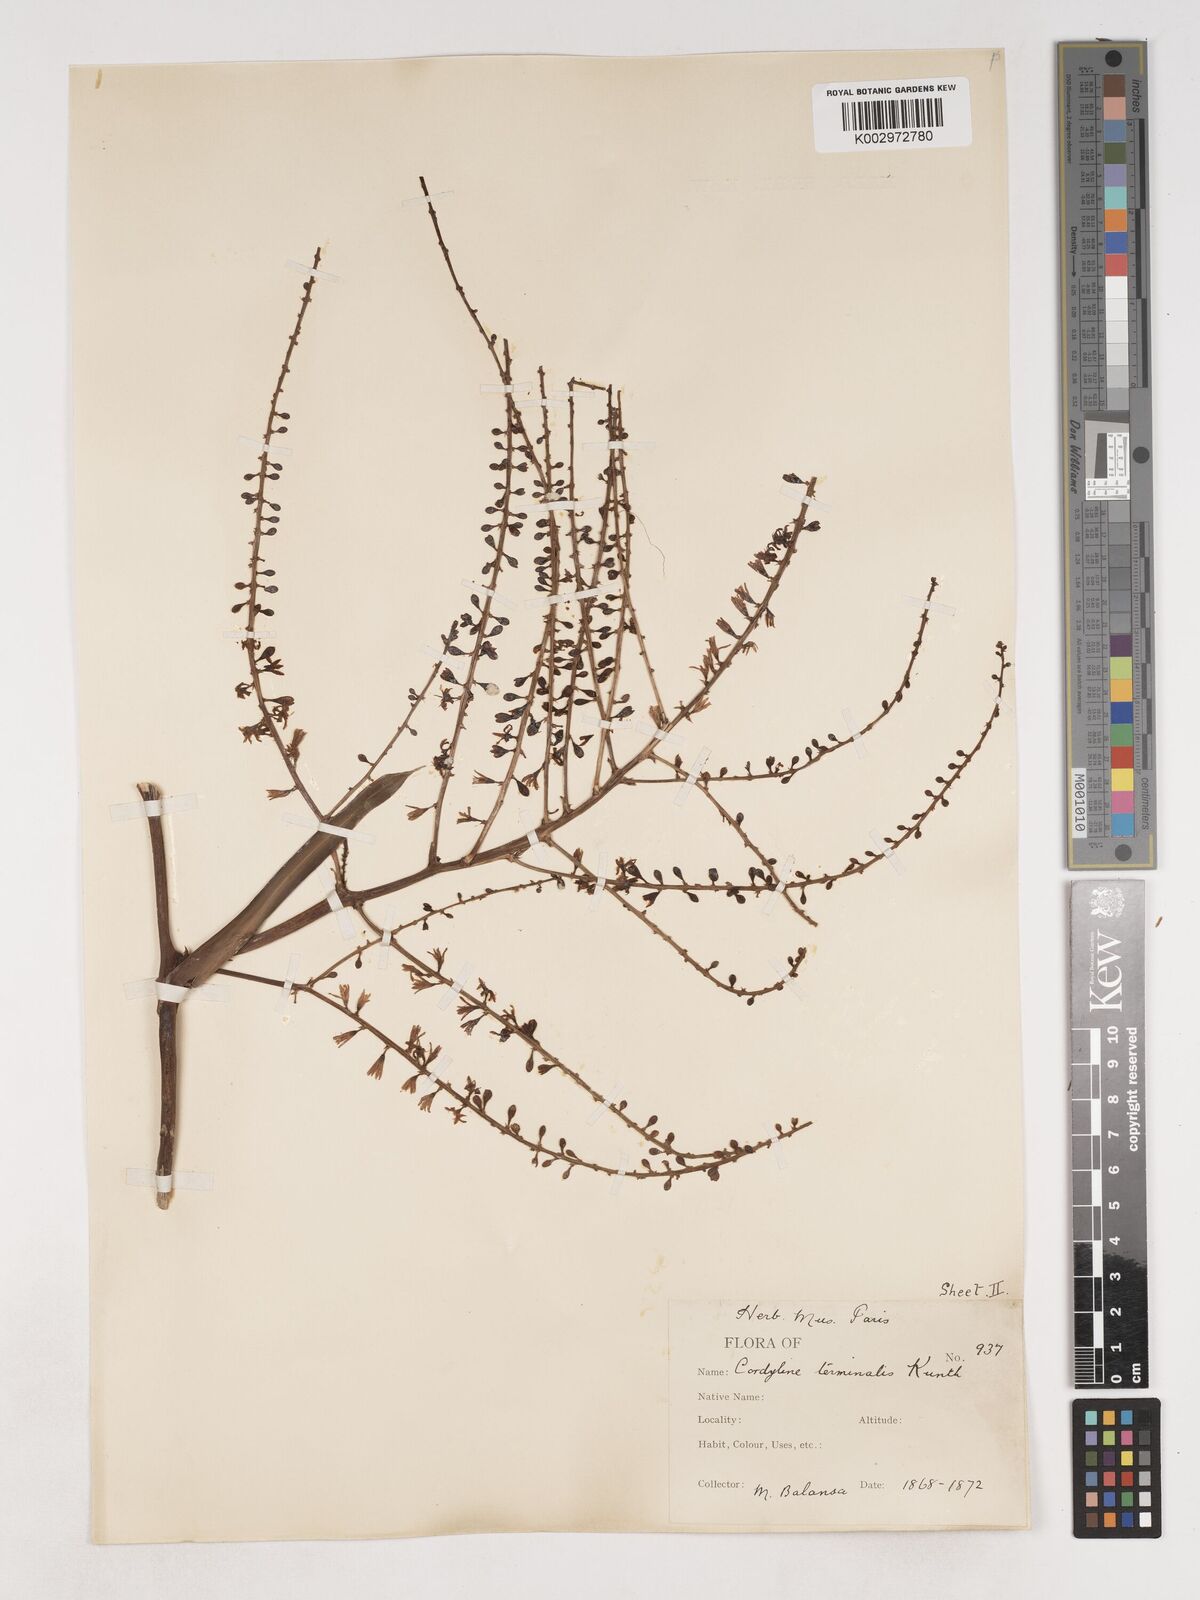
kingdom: Plantae
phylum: Tracheophyta
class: Liliopsida
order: Asparagales
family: Asparagaceae
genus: Cordyline
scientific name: Cordyline fruticosa
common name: Good-luck-plant
